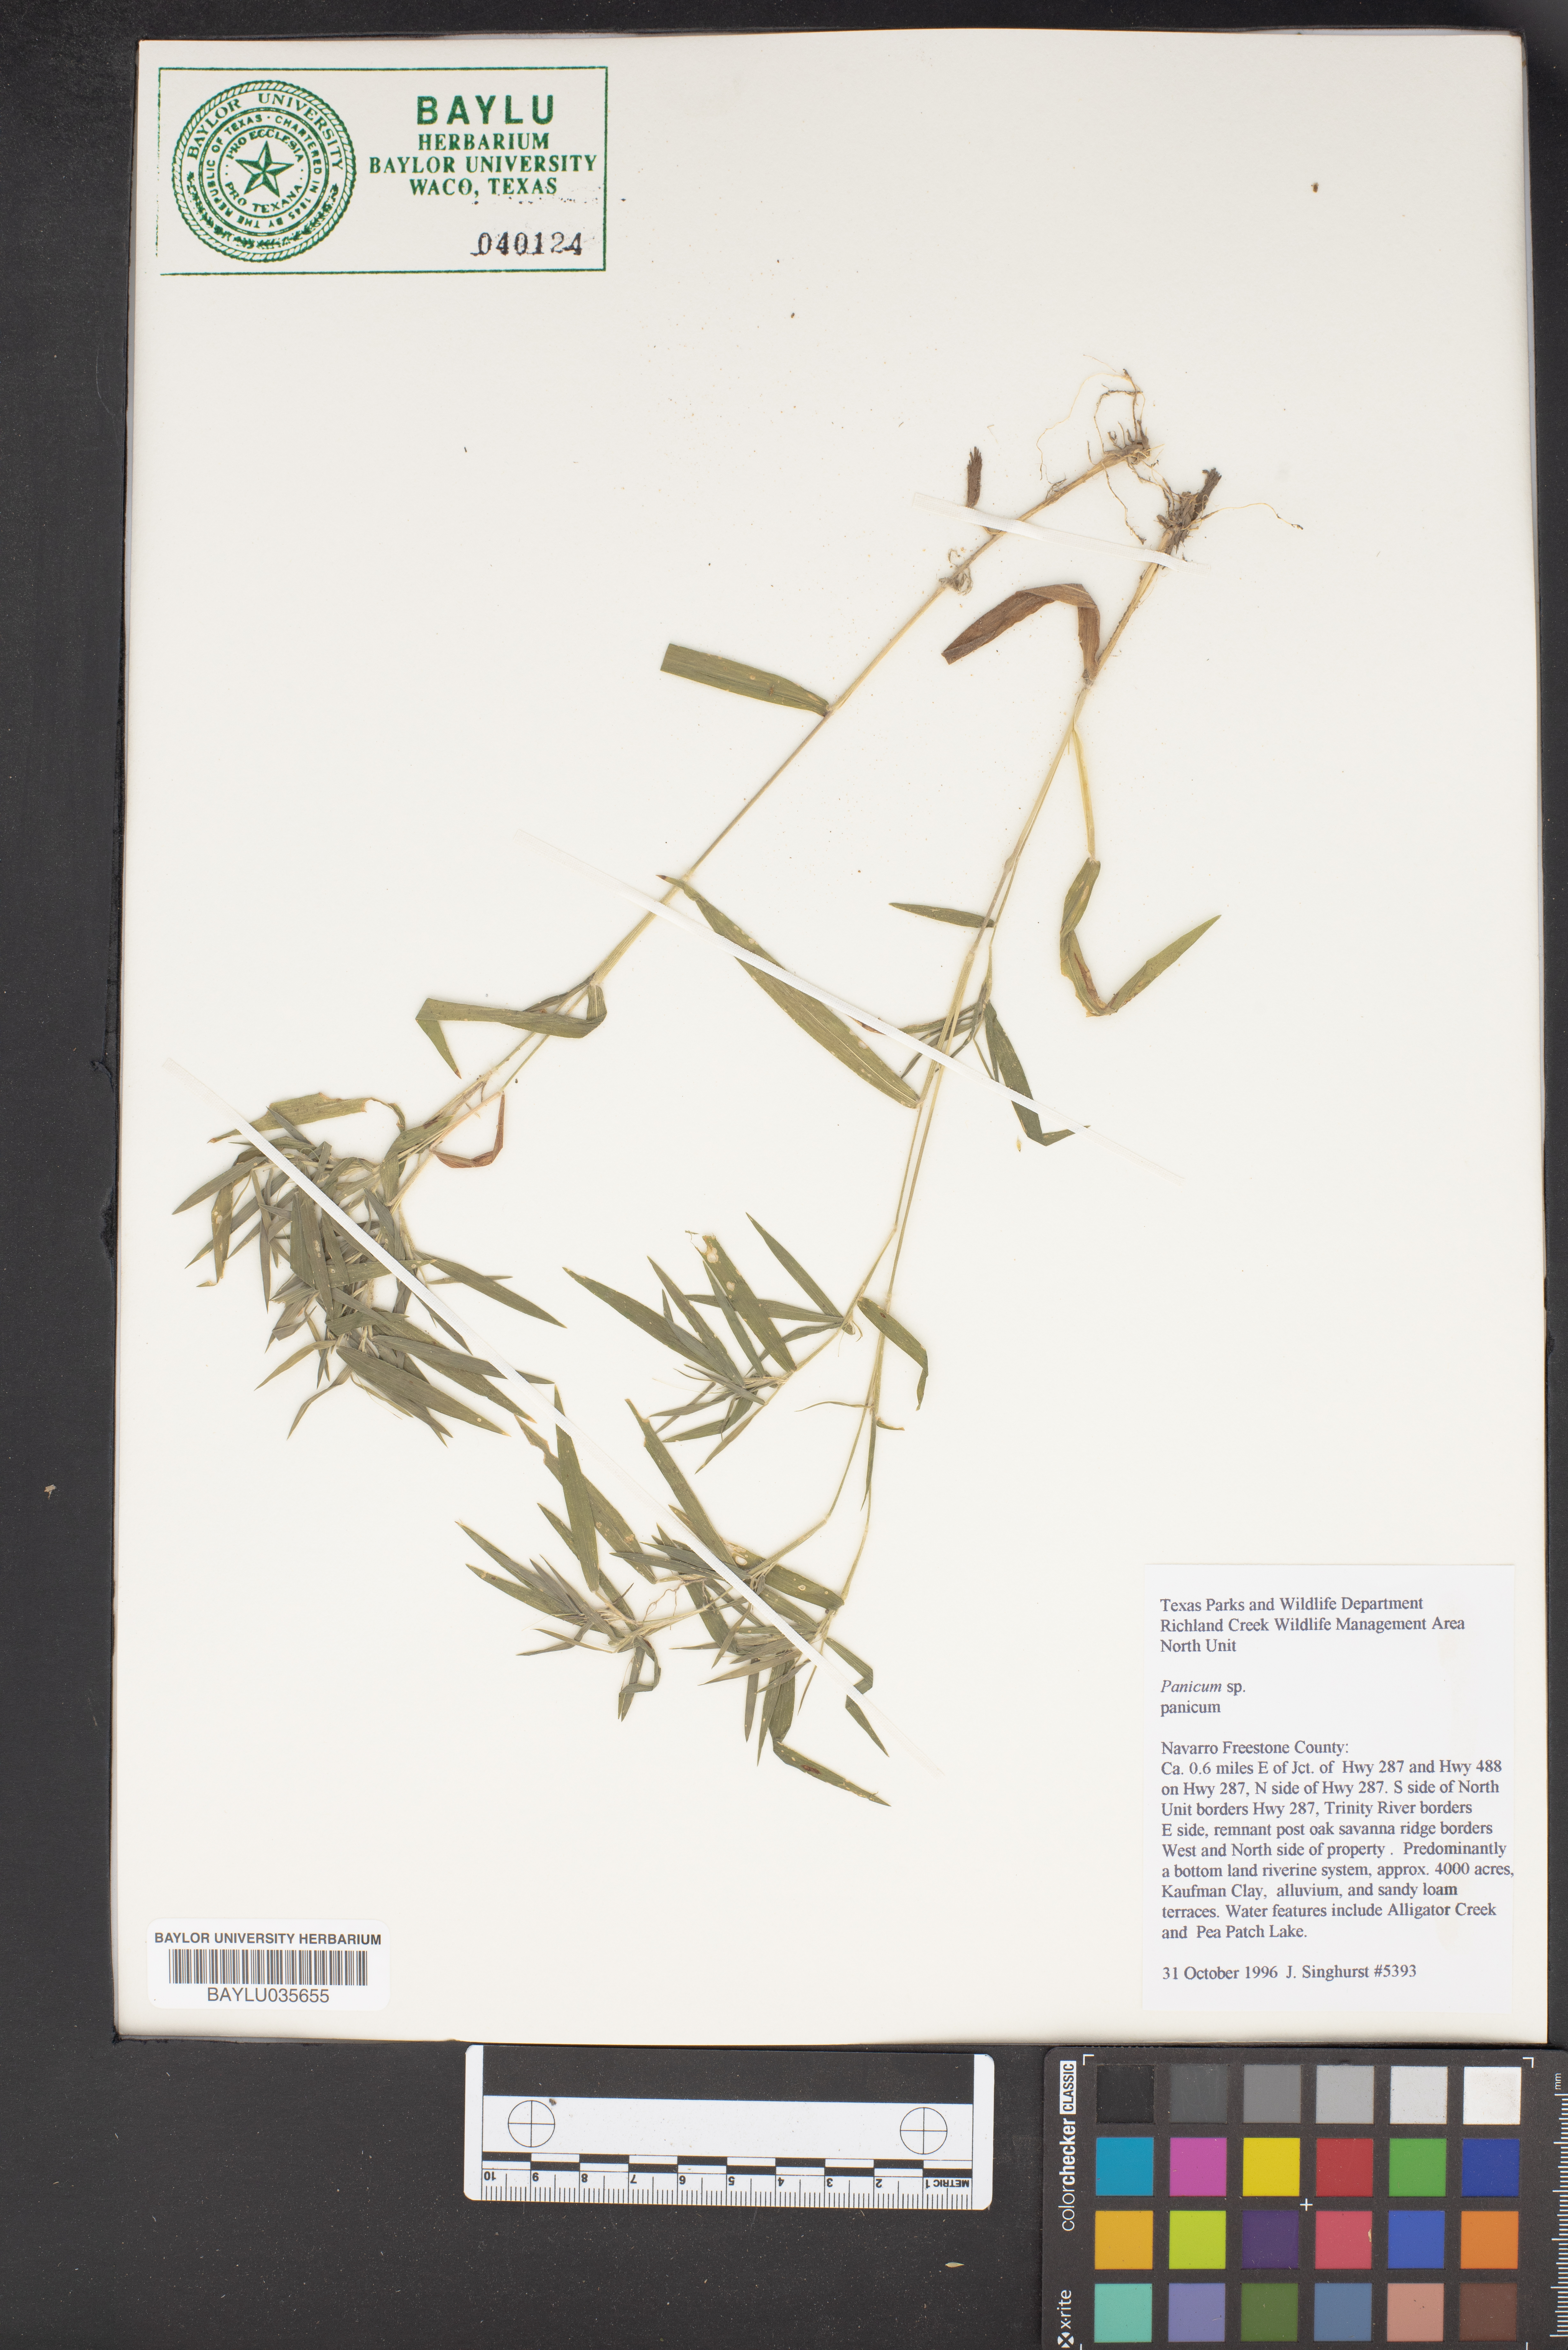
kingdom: Plantae
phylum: Tracheophyta
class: Liliopsida
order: Poales
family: Poaceae
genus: Panicum
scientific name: Panicum
